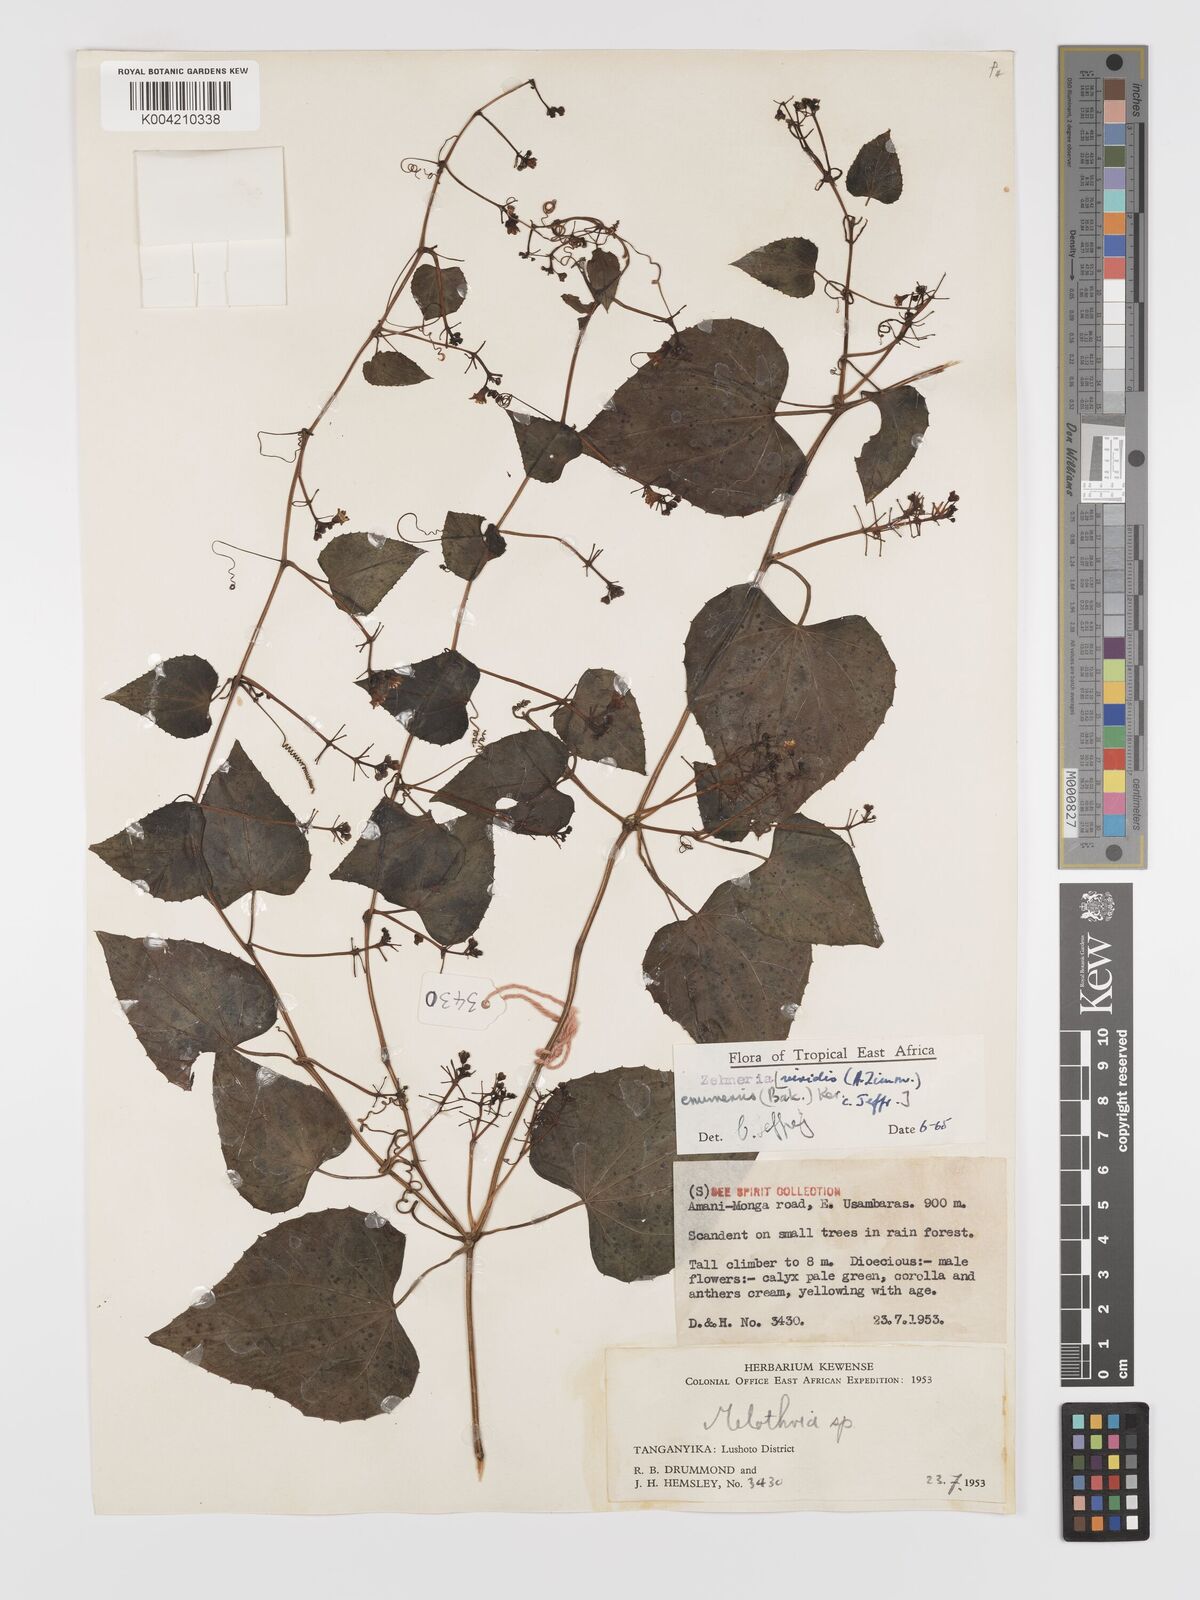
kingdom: Plantae
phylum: Tracheophyta
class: Magnoliopsida
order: Cucurbitales
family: Cucurbitaceae
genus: Zehneria
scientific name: Zehneria emirnensis
